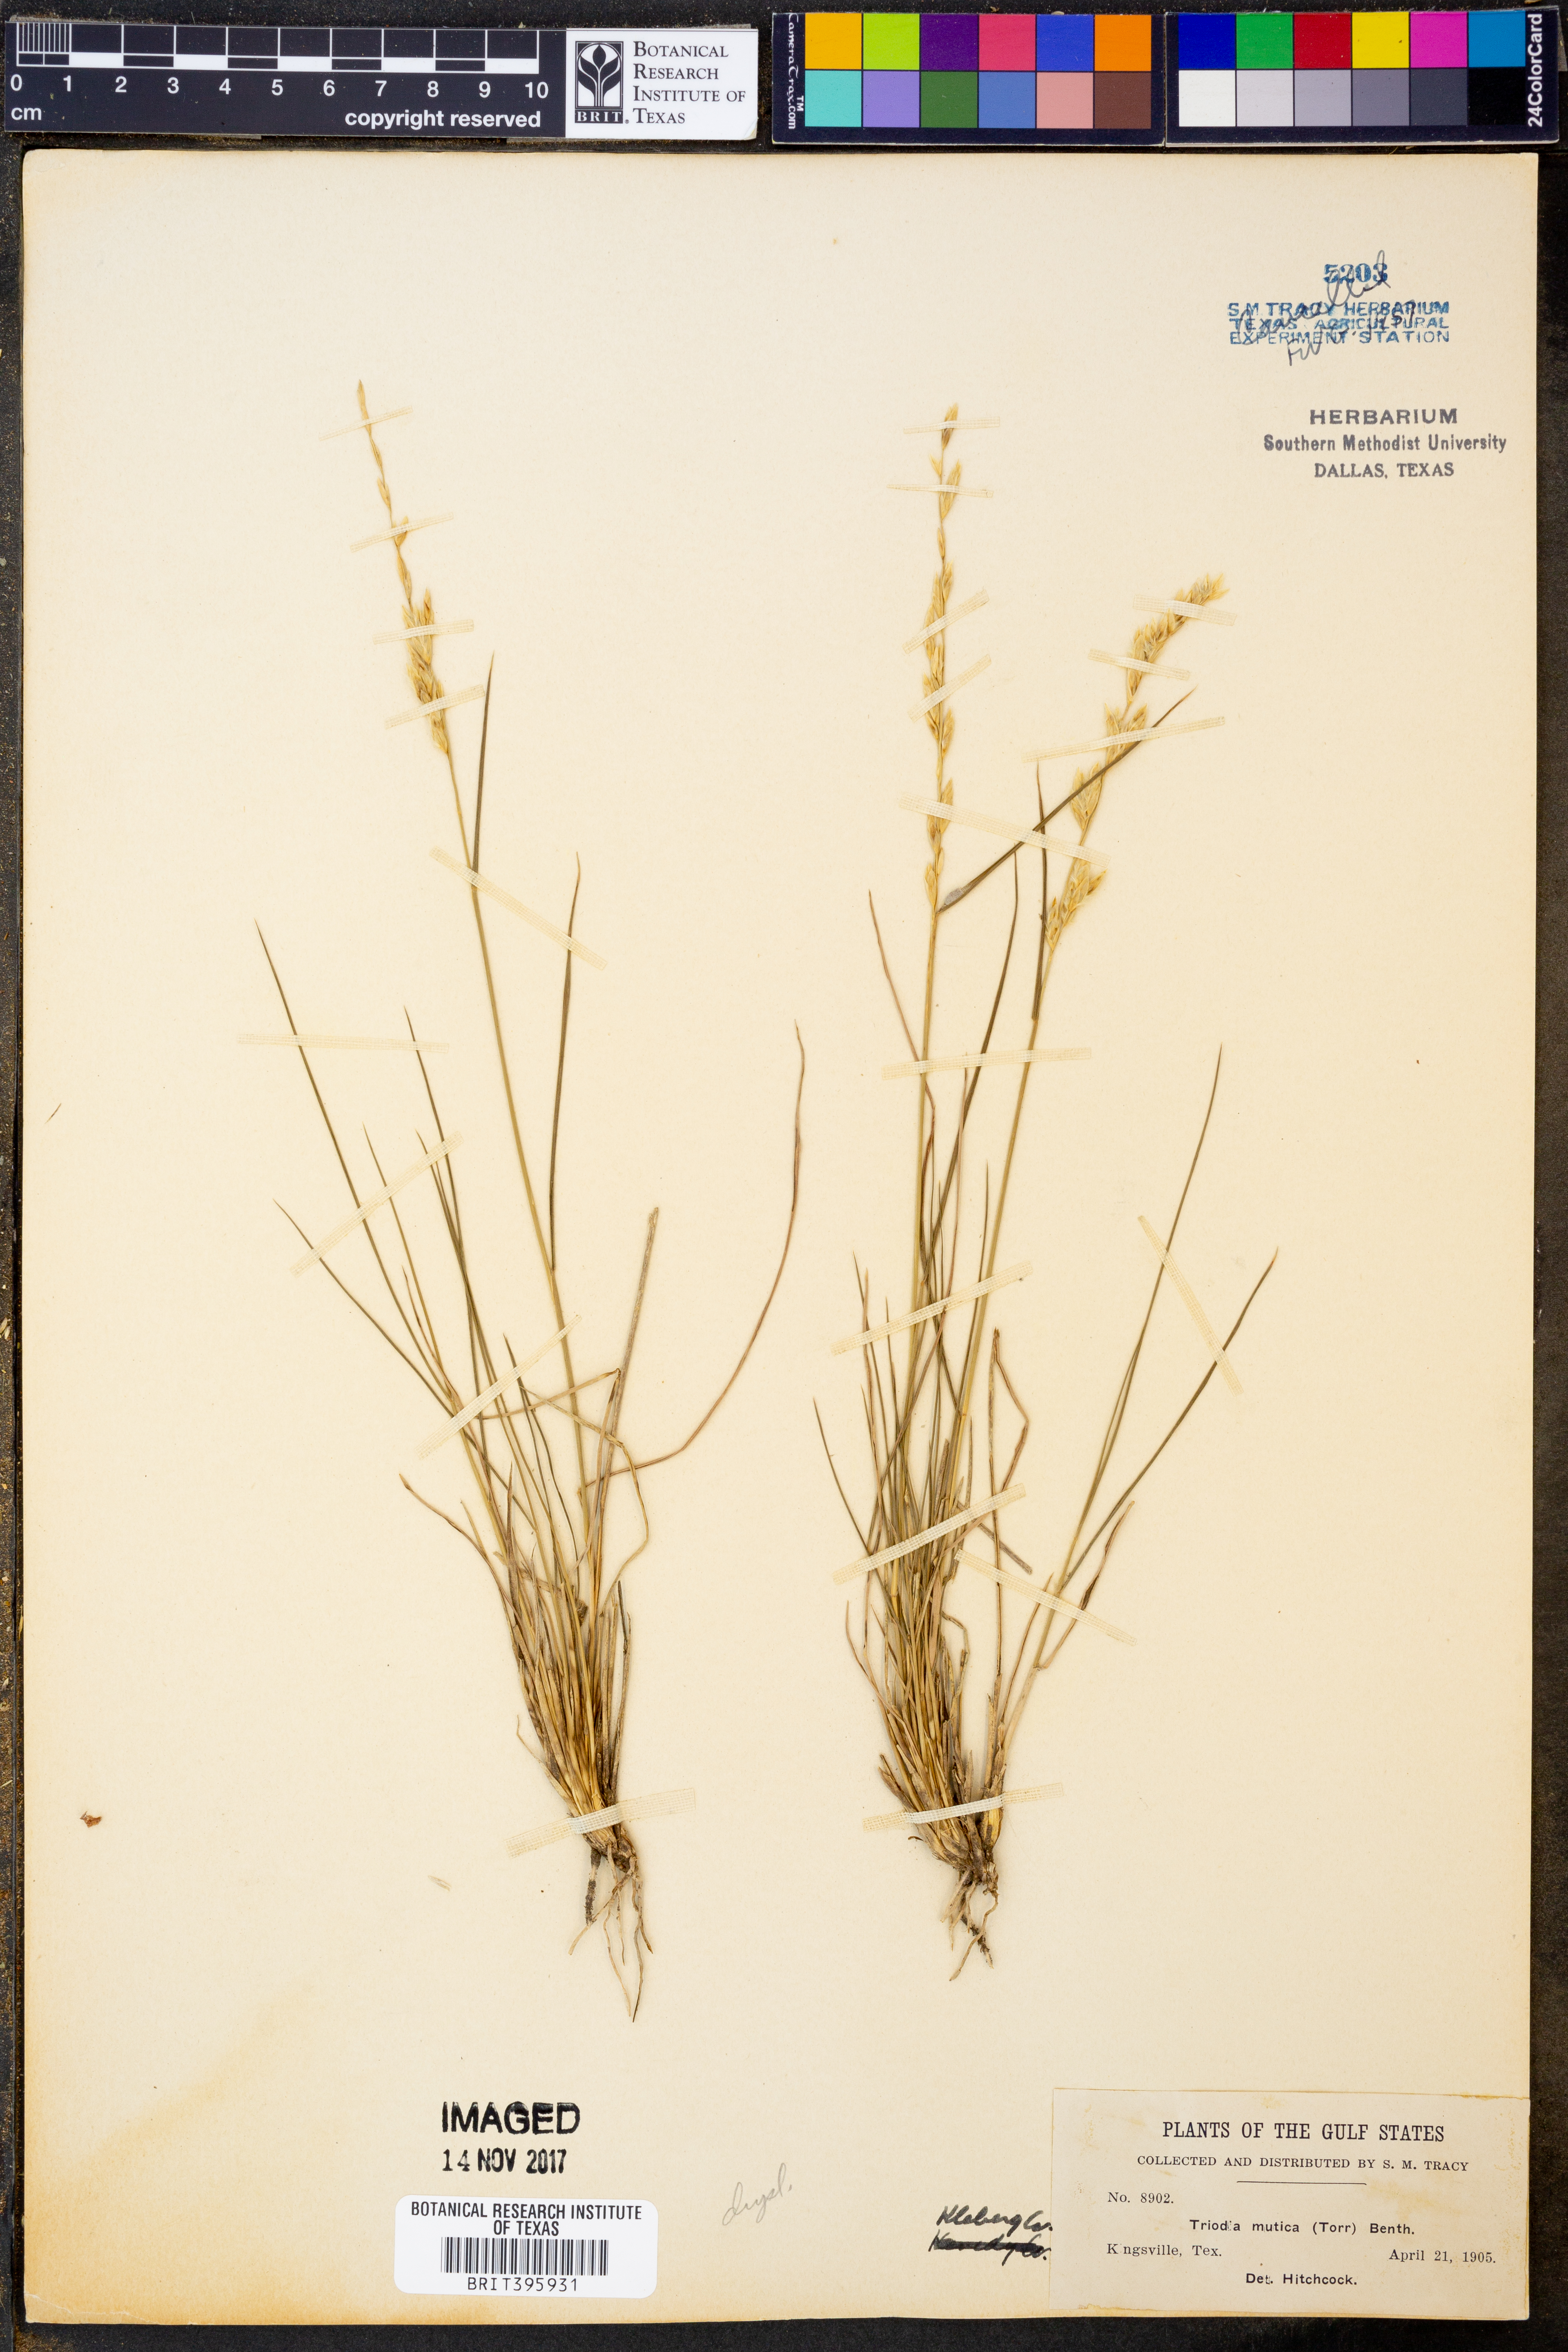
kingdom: Plantae
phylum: Tracheophyta
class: Liliopsida
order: Poales
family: Poaceae
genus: Tridentopsis
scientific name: Tridentopsis mutica
